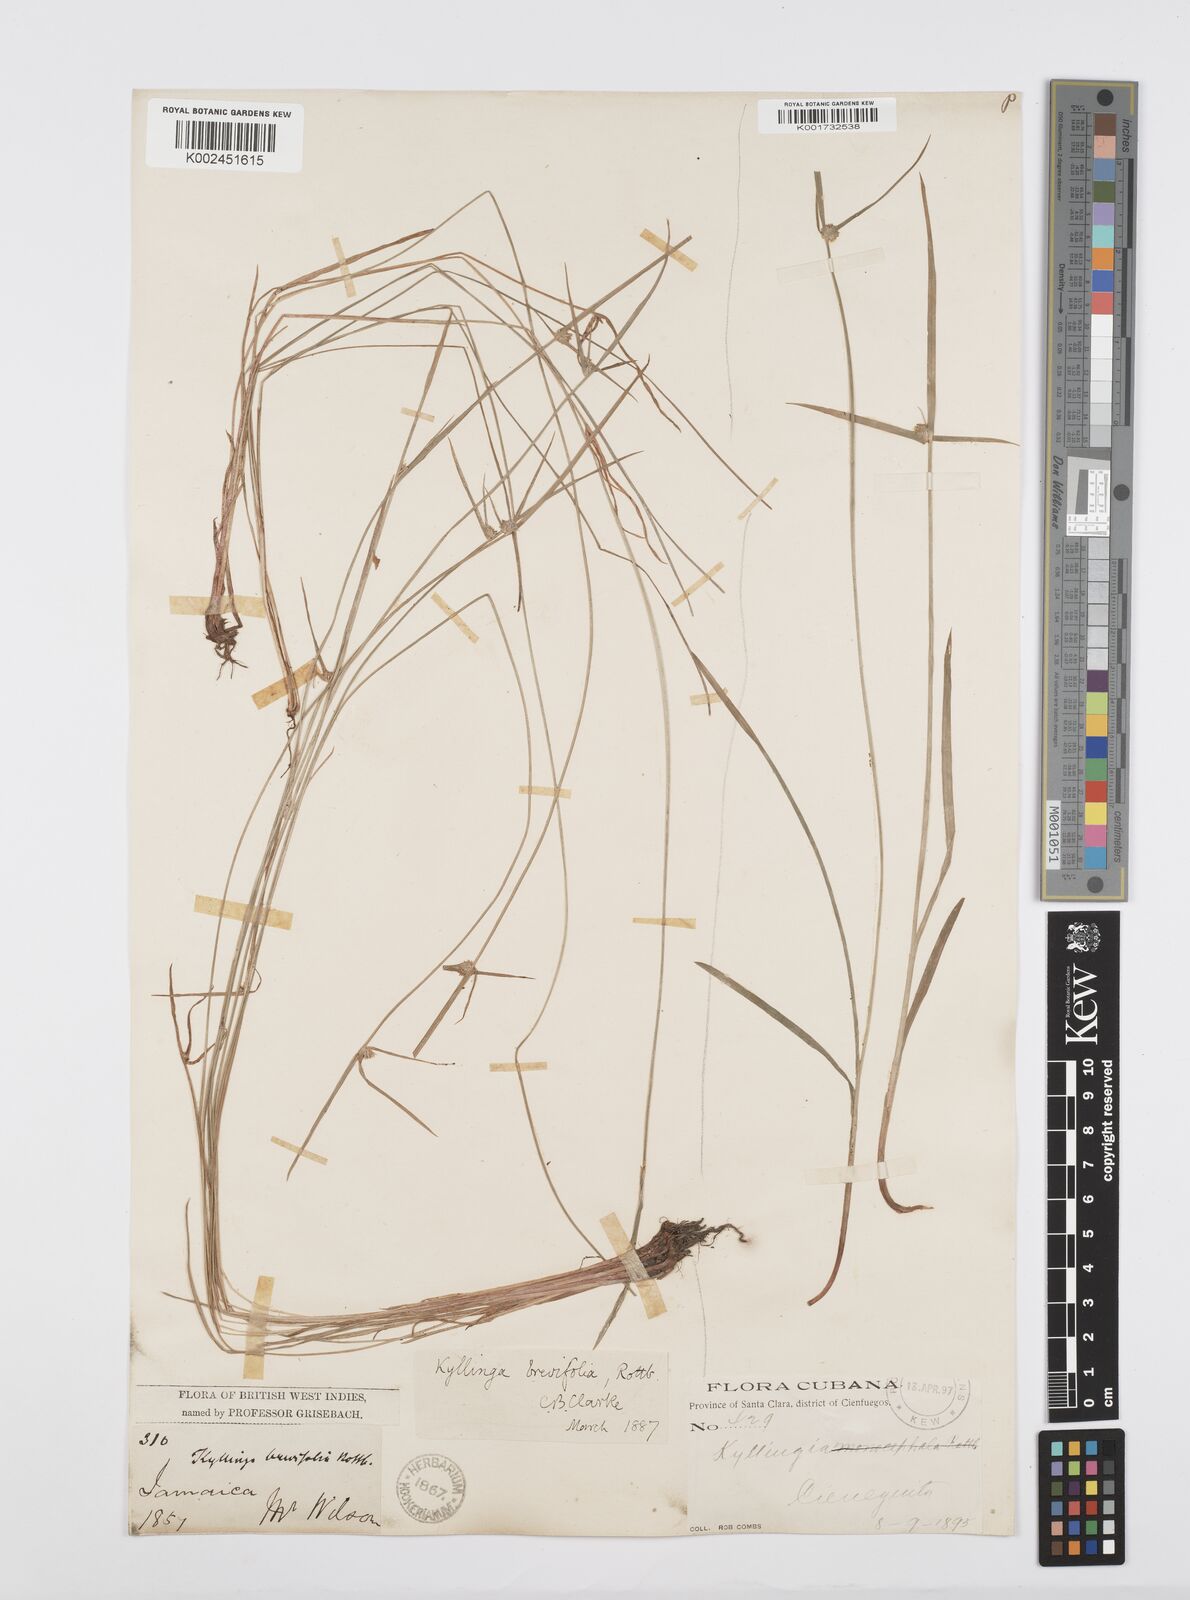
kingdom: Plantae
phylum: Tracheophyta
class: Liliopsida
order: Poales
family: Cyperaceae
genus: Cyperus
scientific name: Cyperus brevifolius
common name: Globe kyllinga
